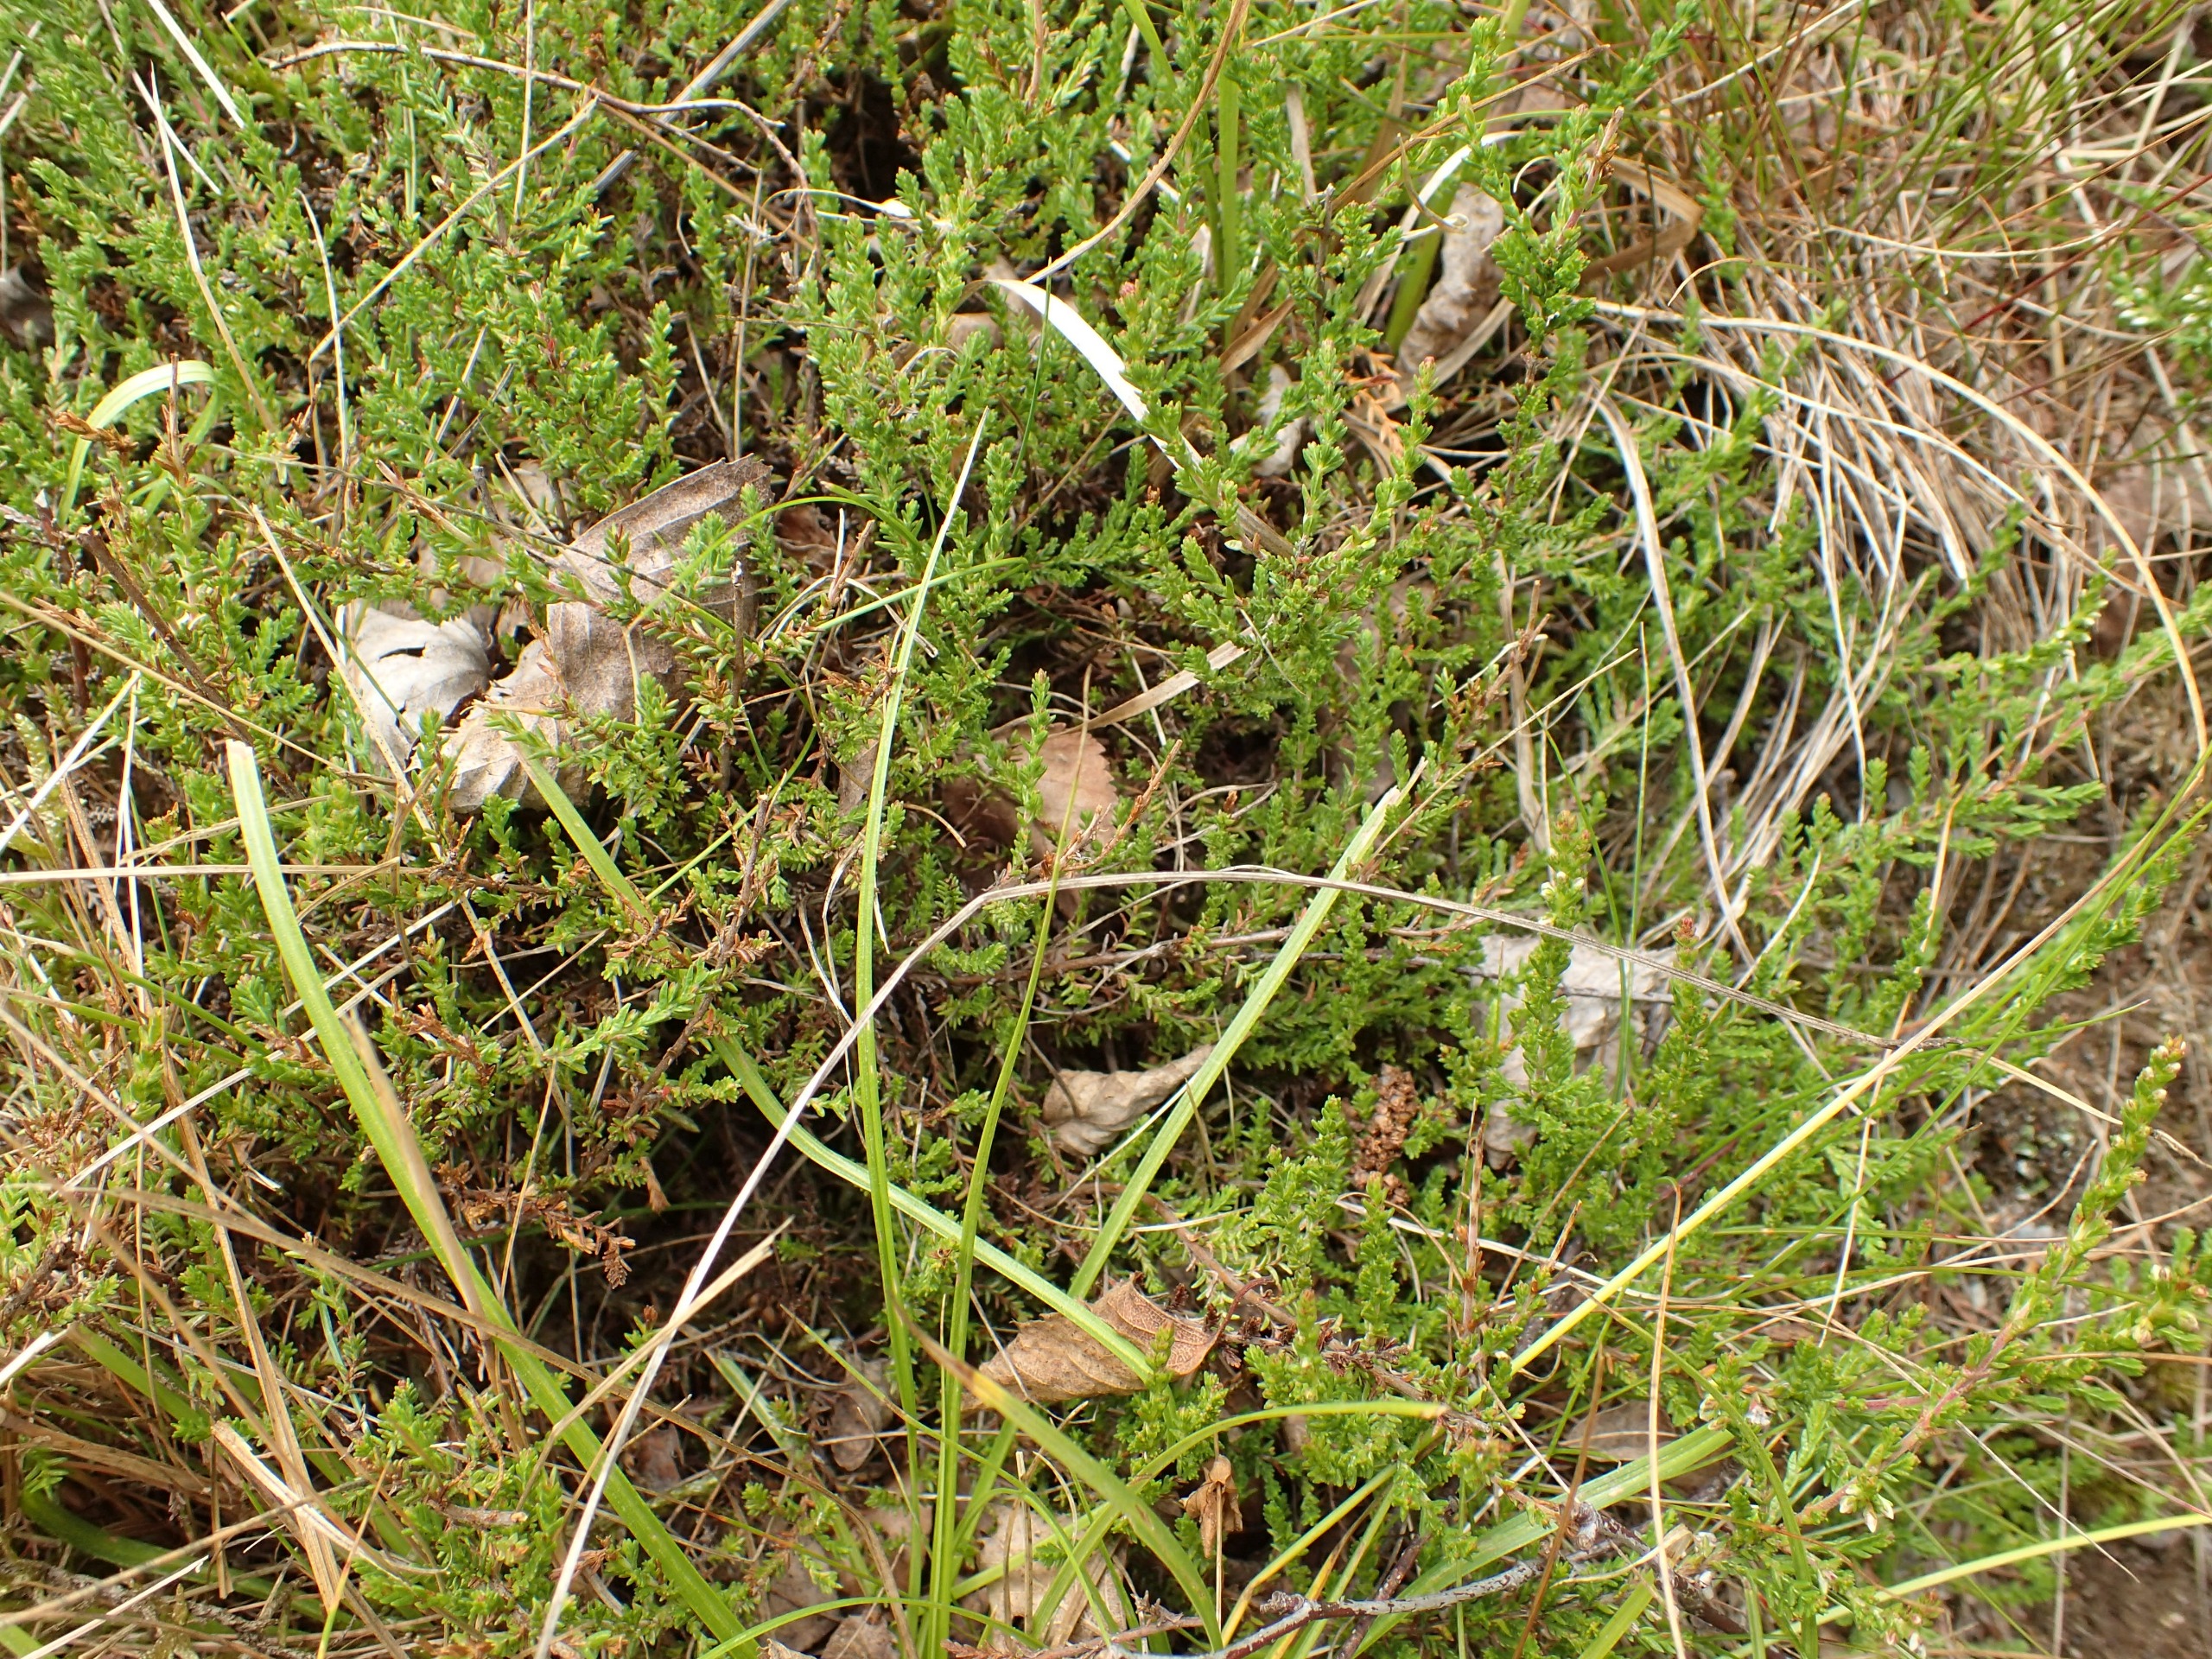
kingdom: Plantae
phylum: Tracheophyta
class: Magnoliopsida
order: Ericales
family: Ericaceae
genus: Calluna
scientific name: Calluna vulgaris
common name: Hedelyng
